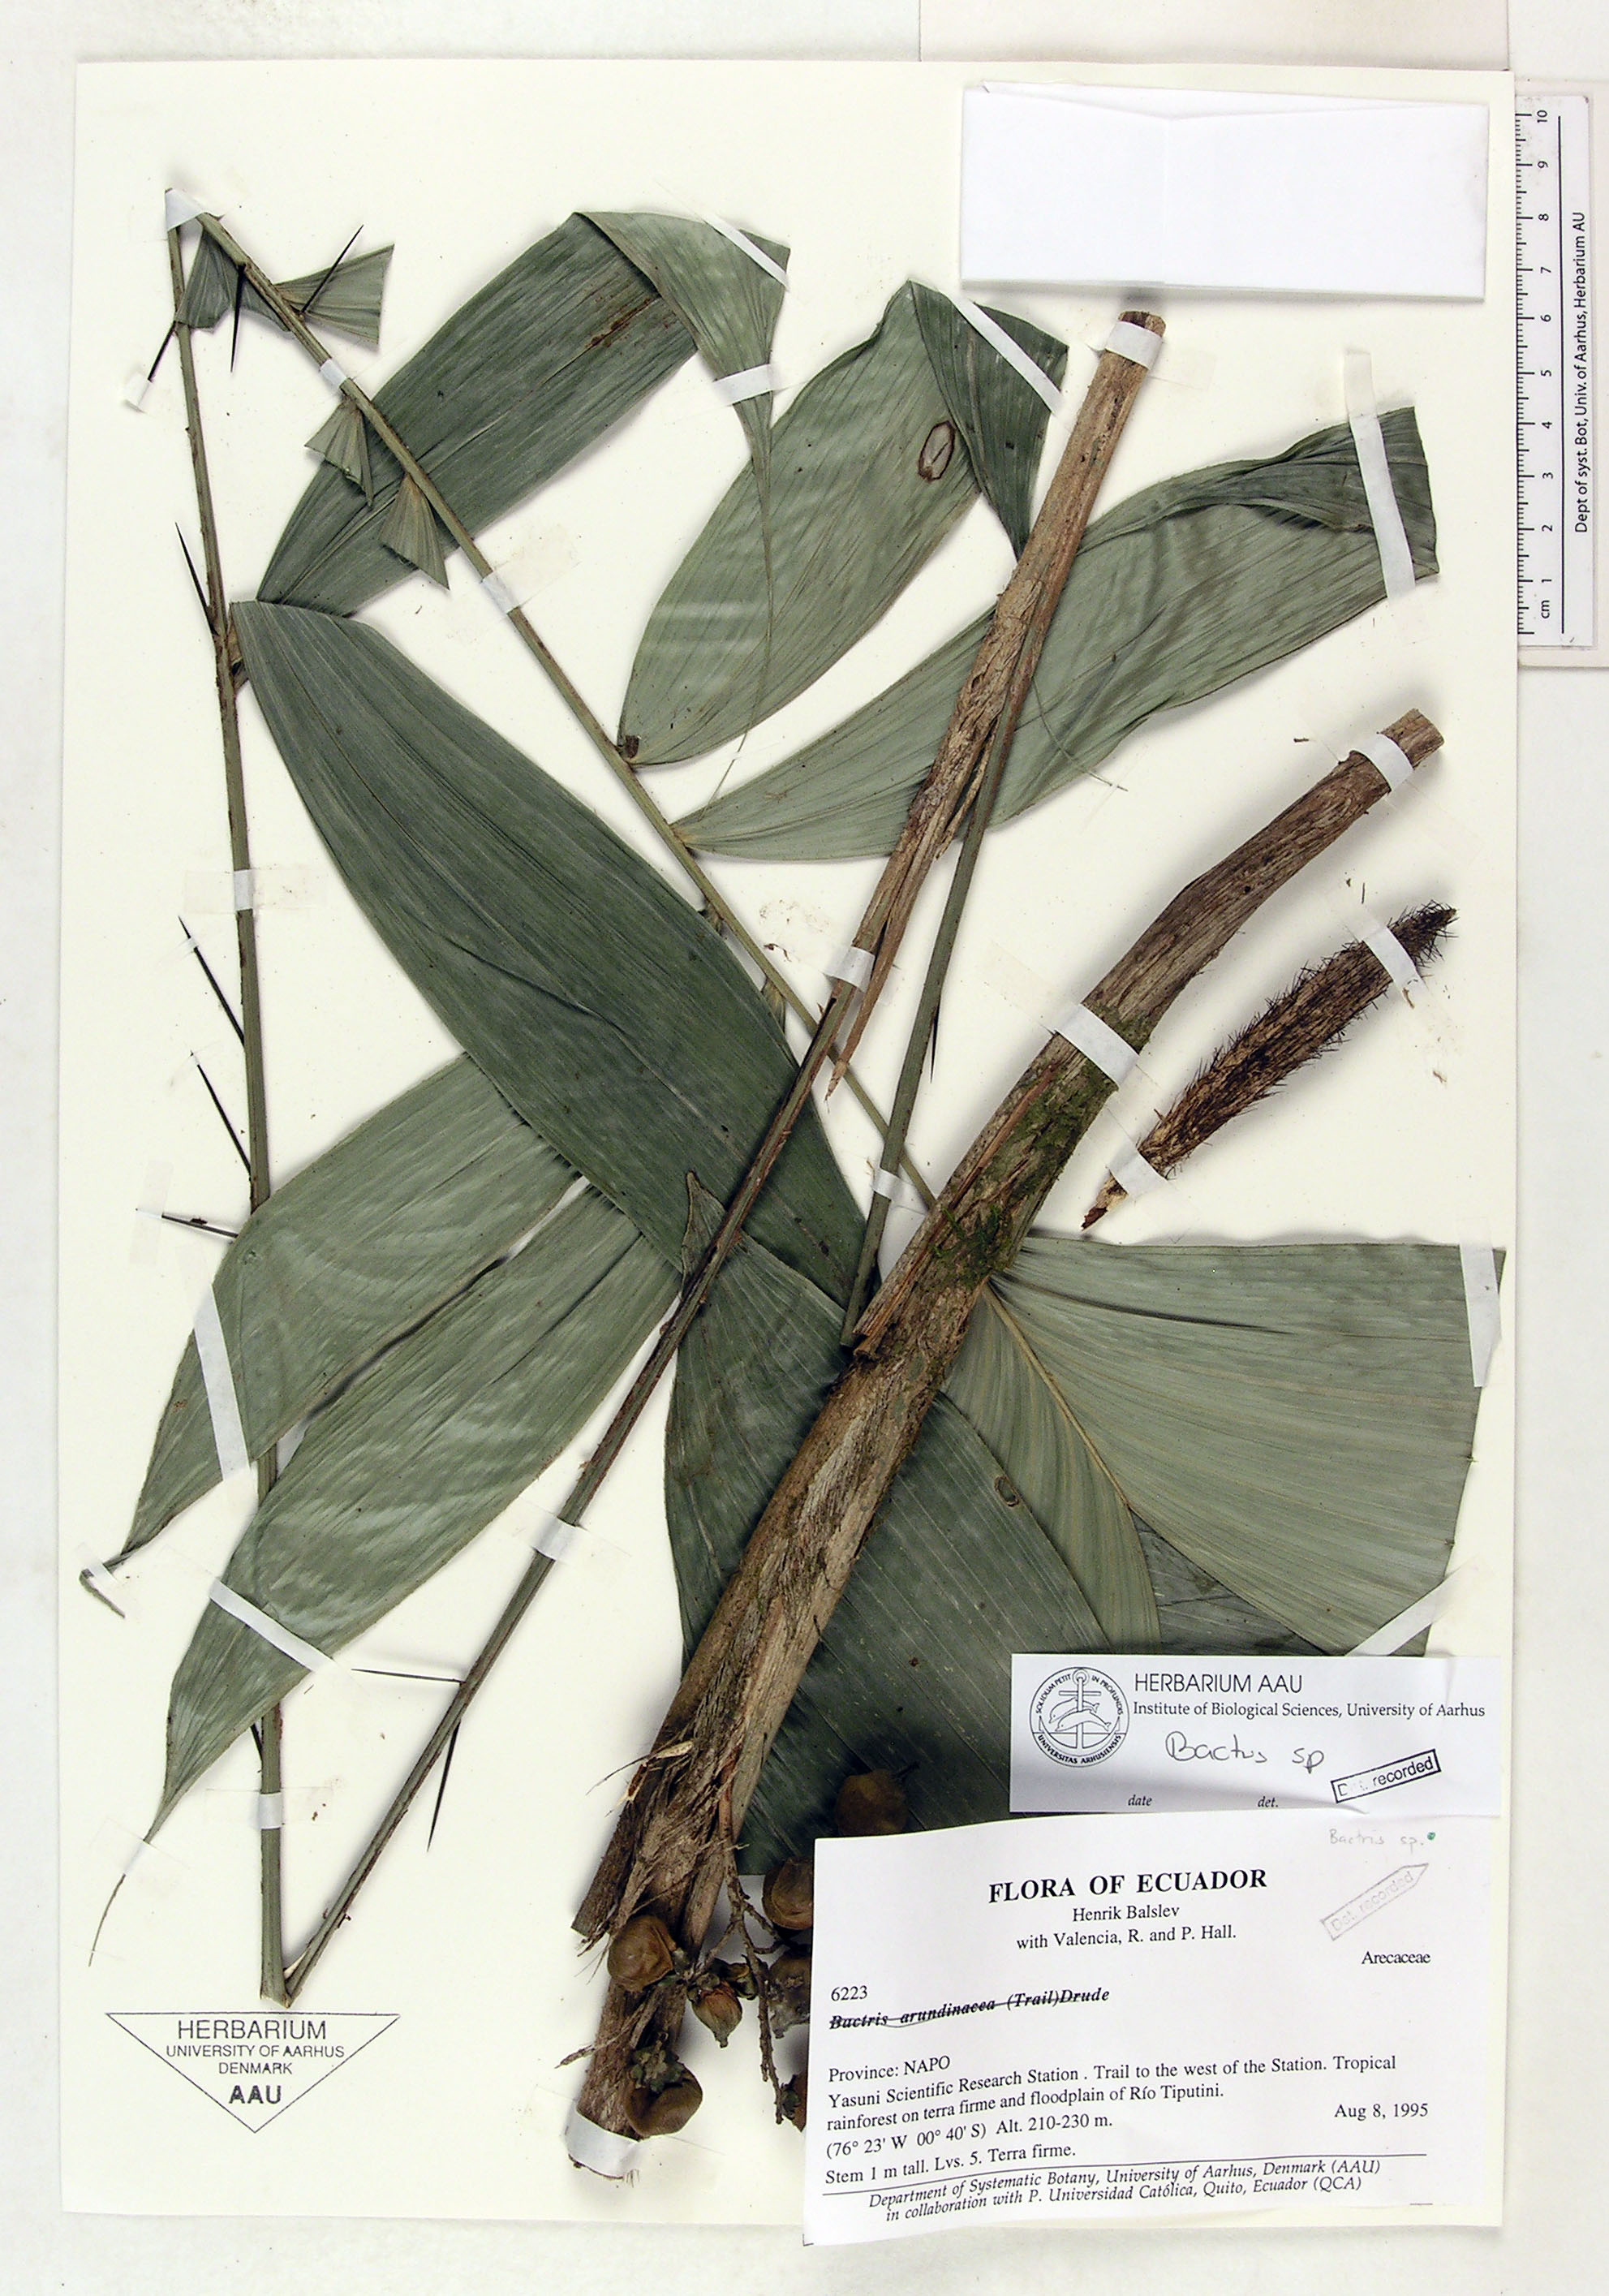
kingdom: Plantae
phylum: Tracheophyta
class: Liliopsida
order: Arecales
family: Arecaceae
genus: Bactris
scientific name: Bactris
